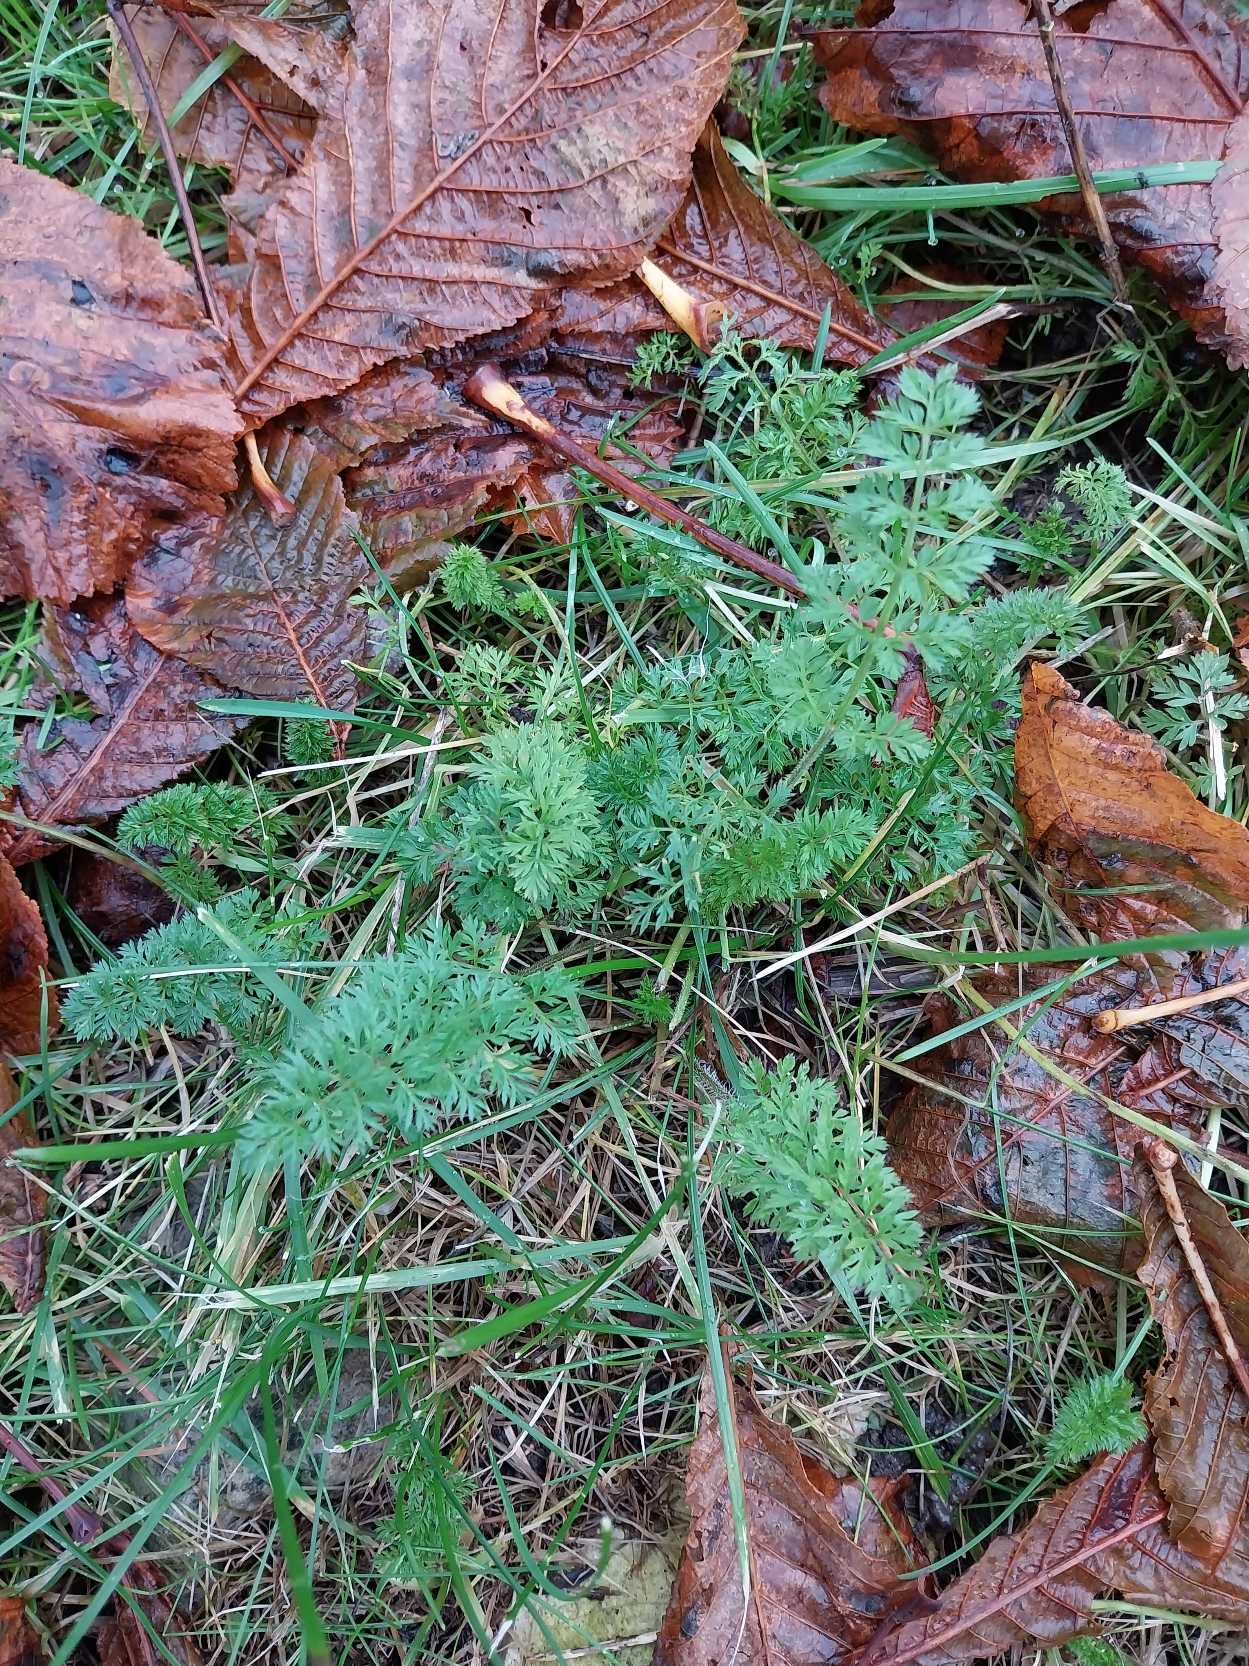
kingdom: Plantae
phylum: Tracheophyta
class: Magnoliopsida
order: Apiales
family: Apiaceae
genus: Daucus
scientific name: Daucus carota
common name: Gulerod
